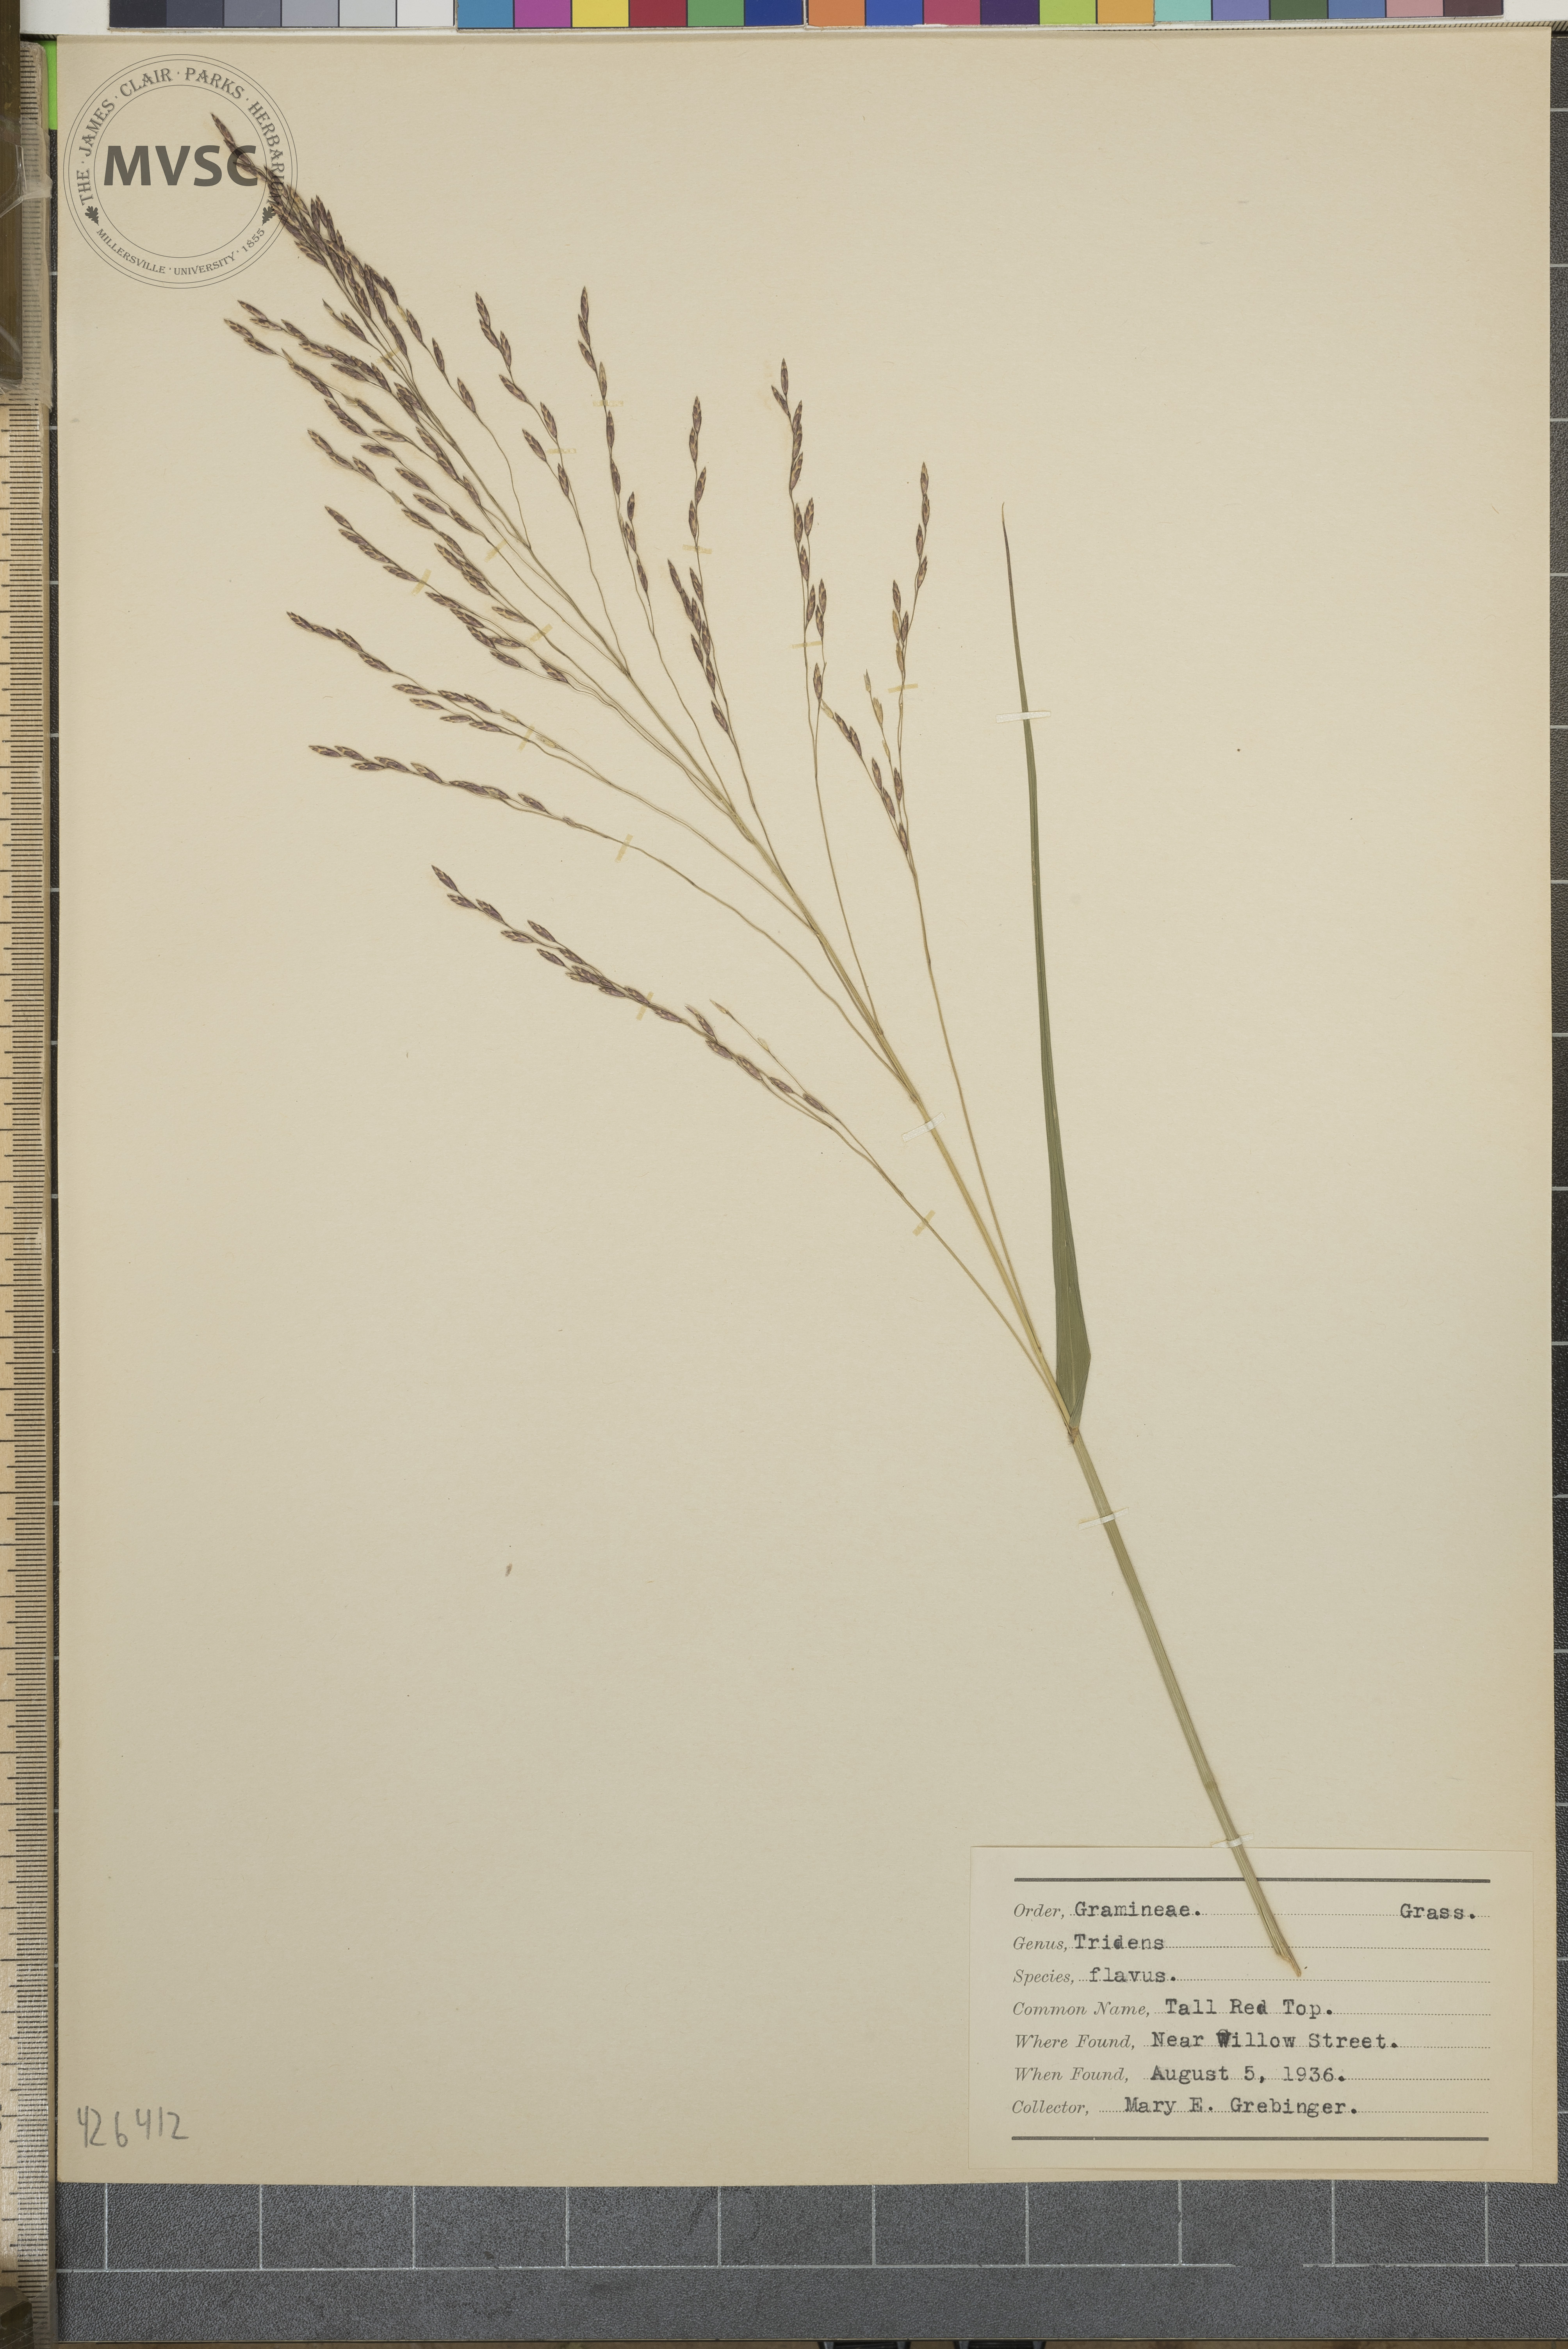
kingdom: Plantae
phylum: Tracheophyta
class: Liliopsida
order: Poales
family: Poaceae
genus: Tridens
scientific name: Tridens flavus
